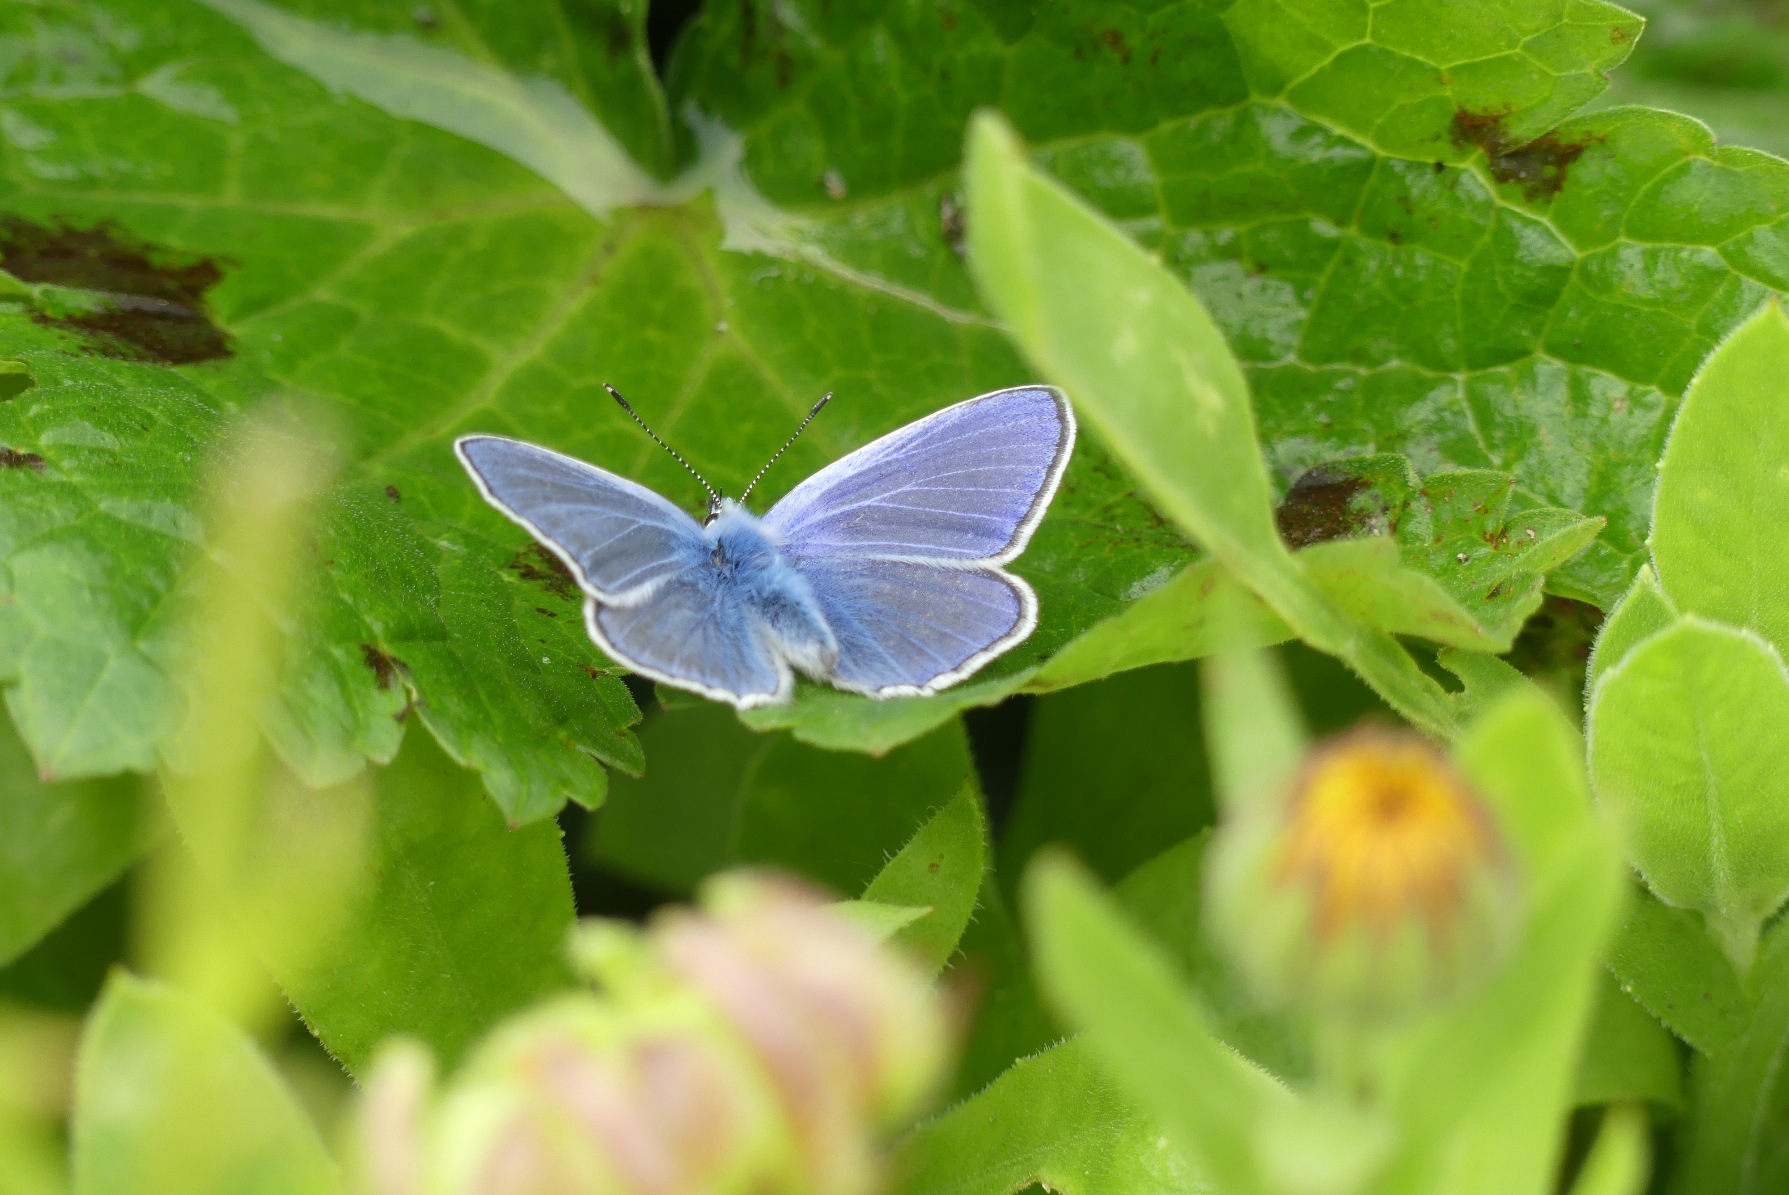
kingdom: Animalia
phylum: Arthropoda
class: Insecta
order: Lepidoptera
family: Lycaenidae
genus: Polyommatus
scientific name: Polyommatus icarus
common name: Almindelig blåfugl
